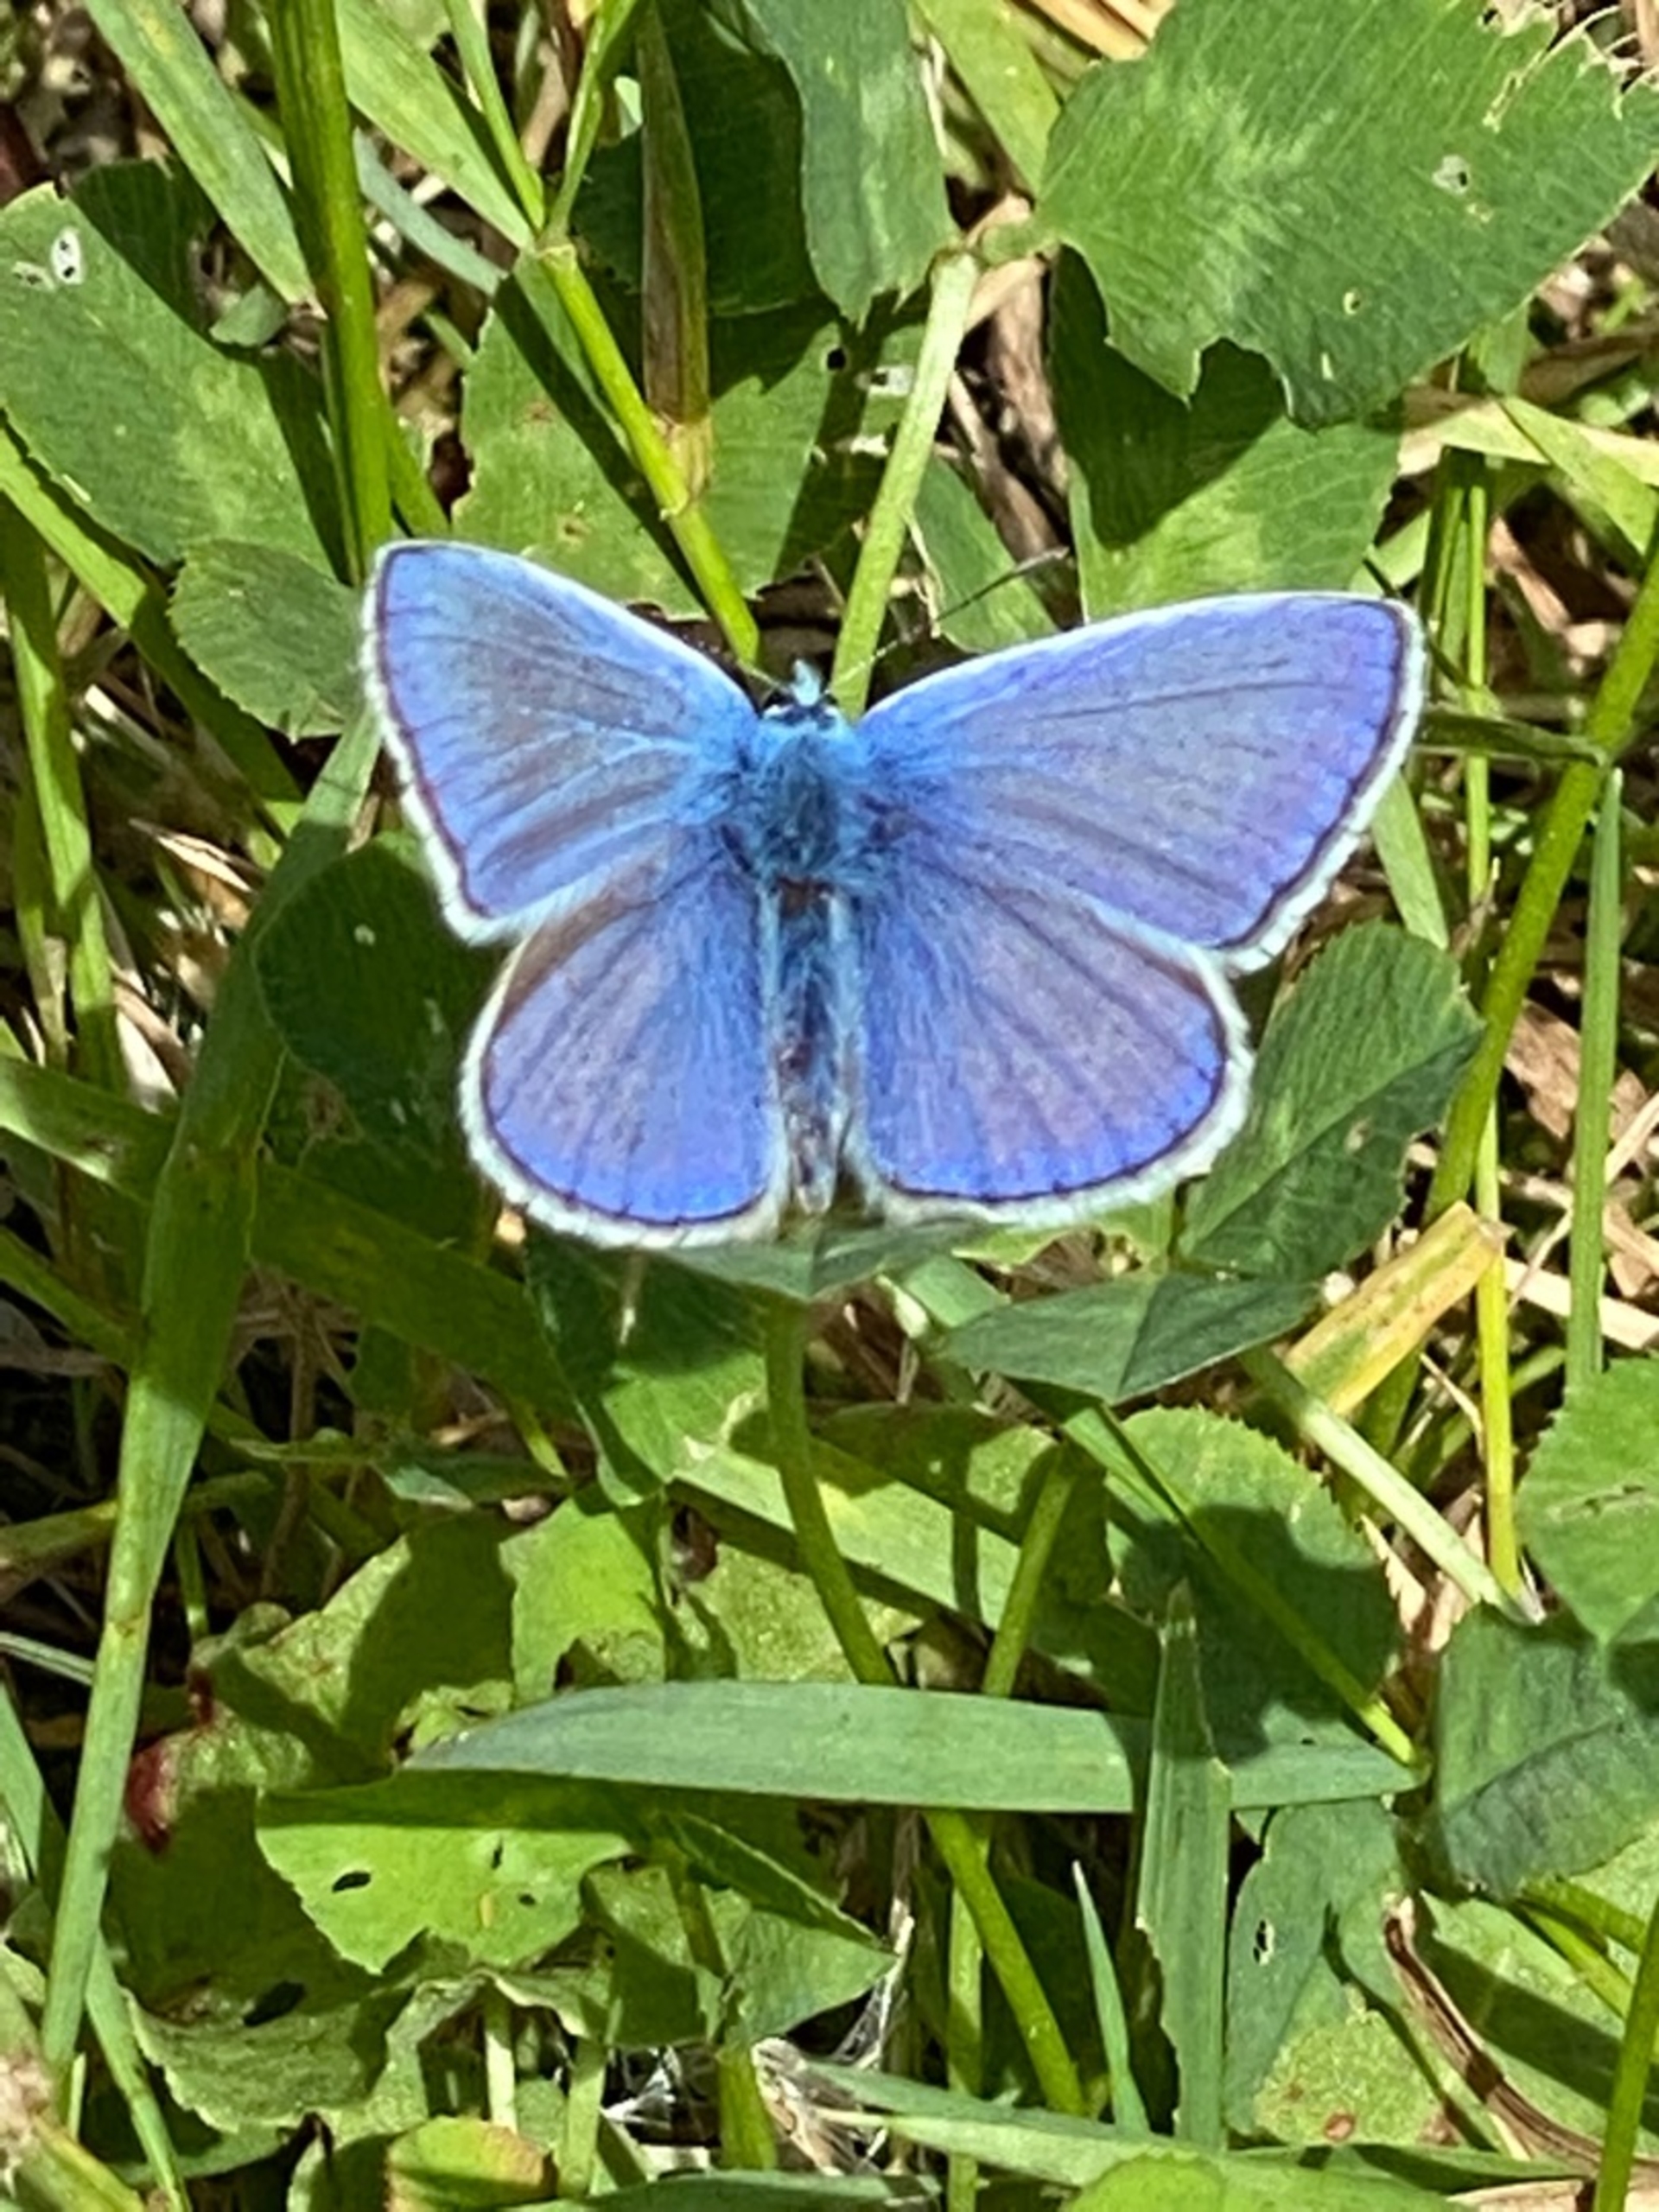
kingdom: Animalia
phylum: Arthropoda
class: Insecta
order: Lepidoptera
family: Lycaenidae
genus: Polyommatus
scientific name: Polyommatus icarus
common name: Almindelig blåfugl
